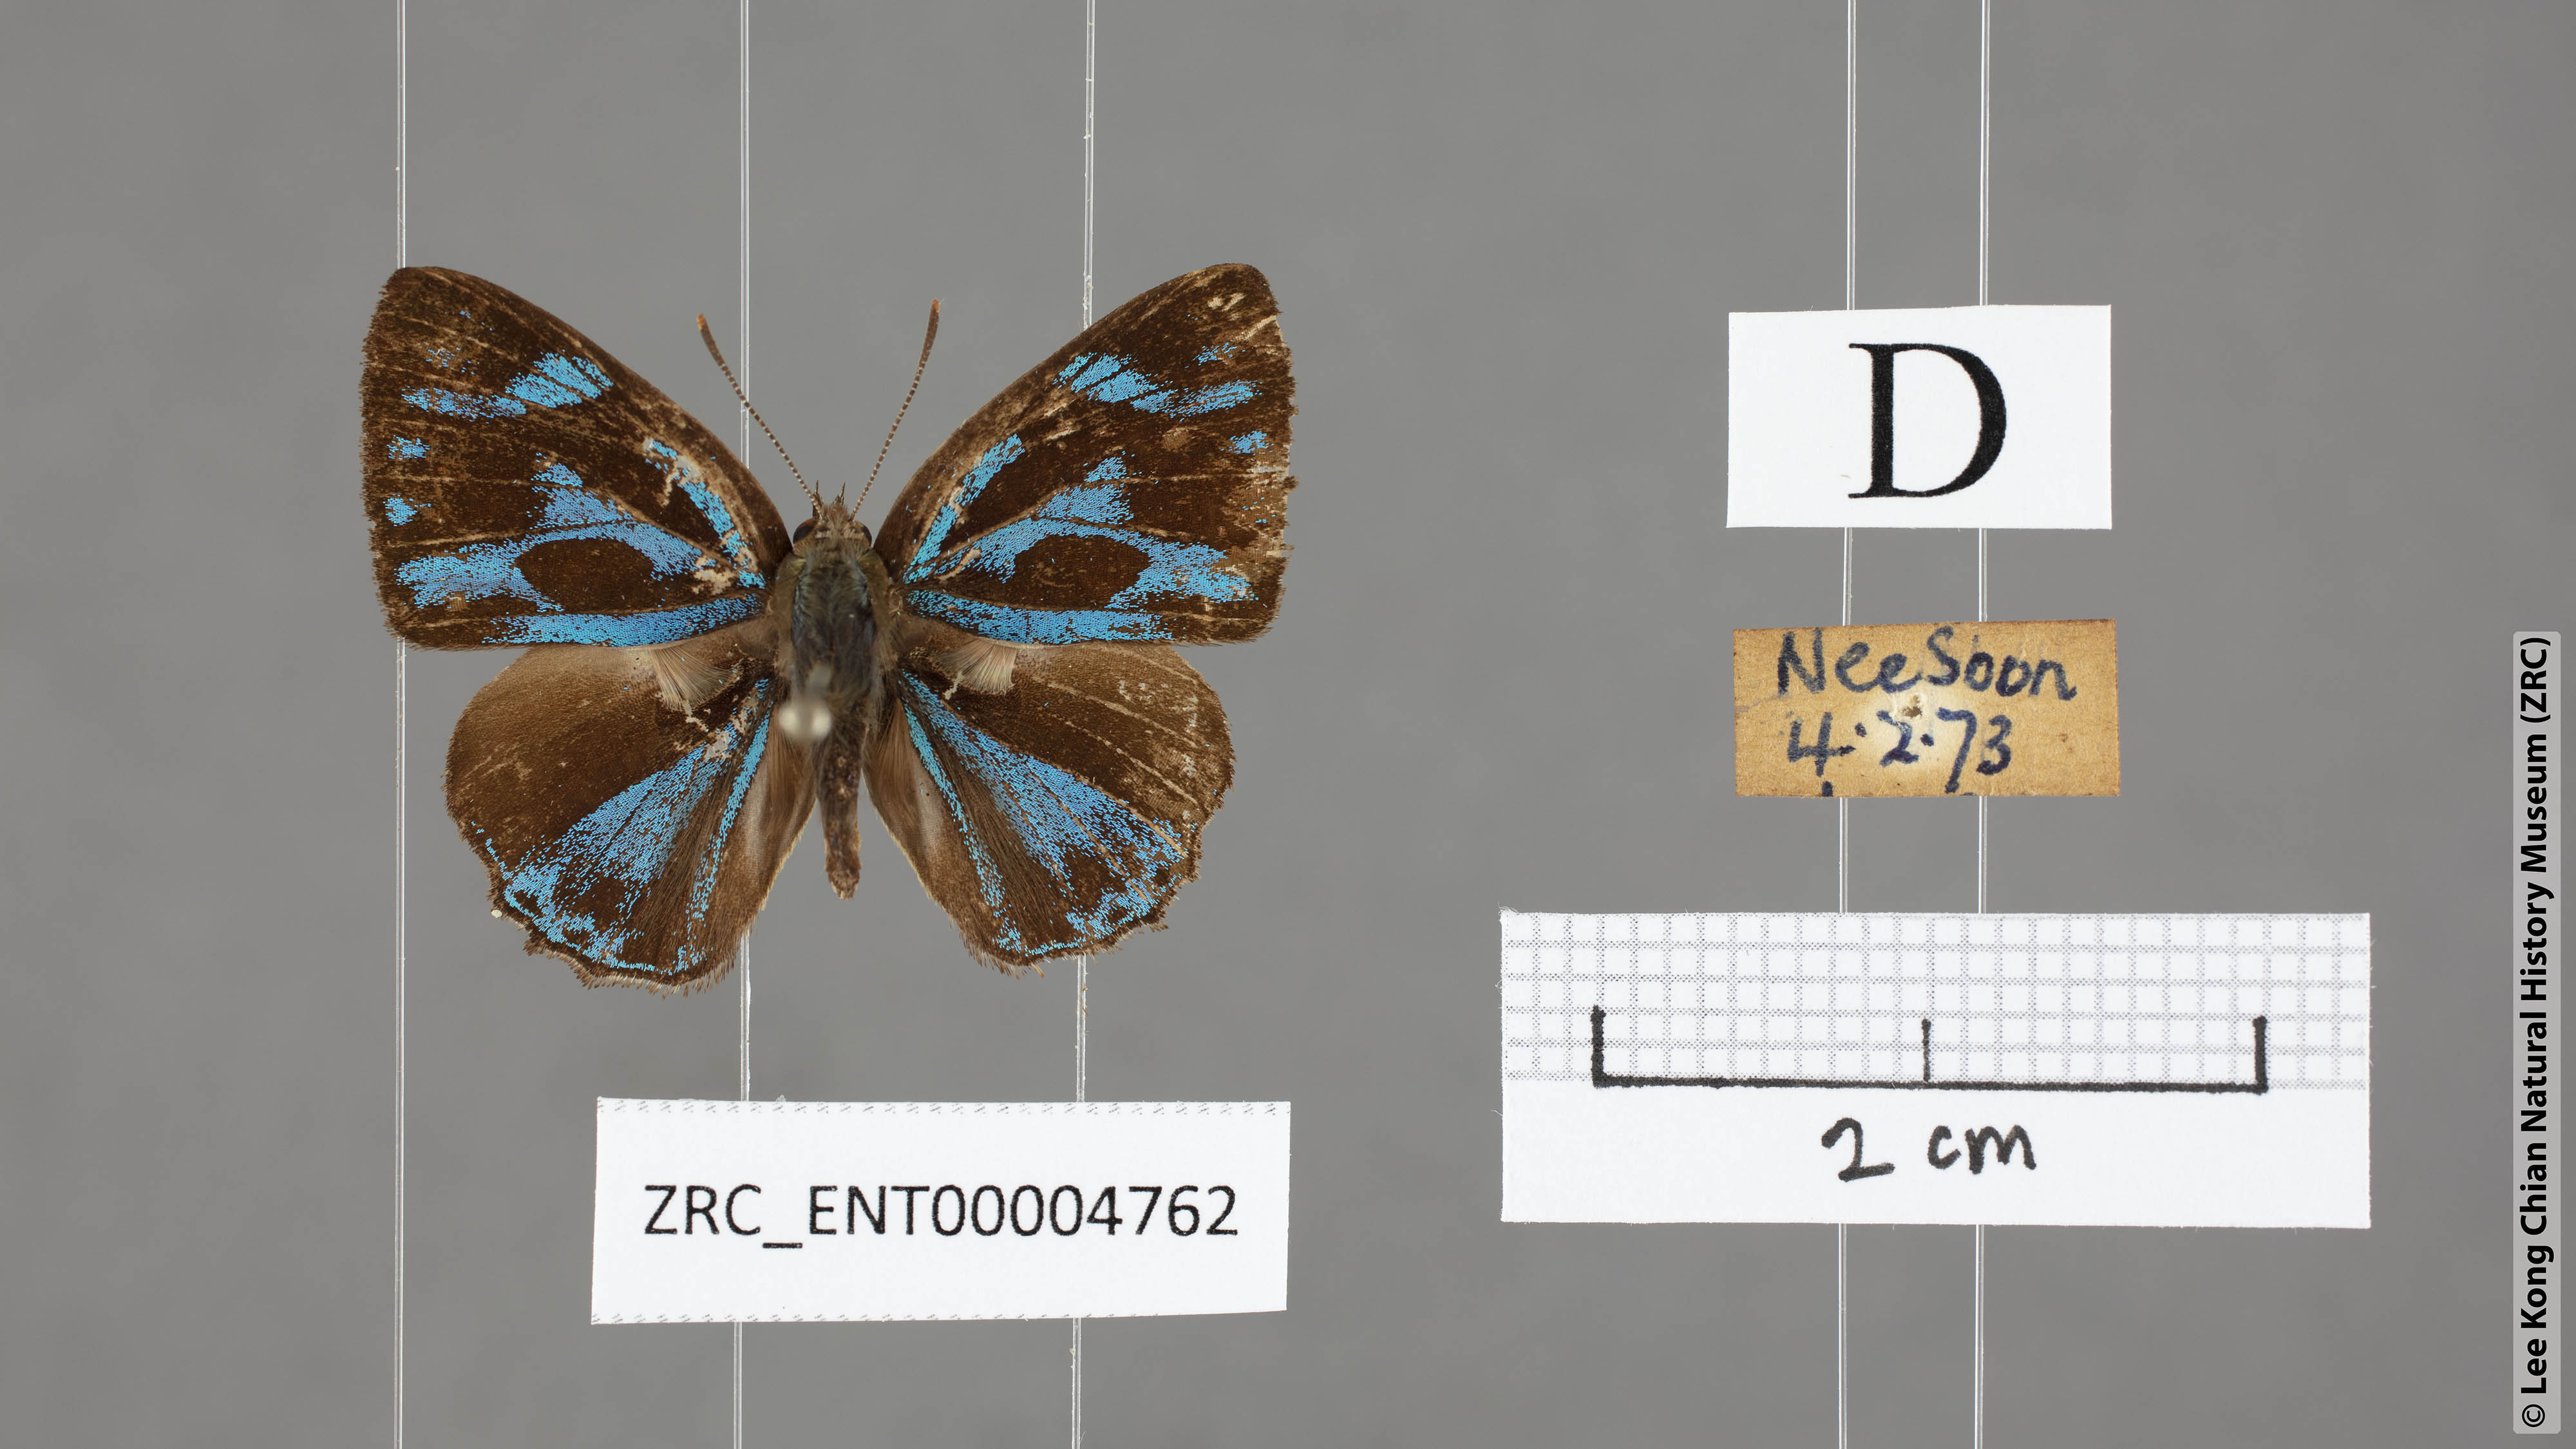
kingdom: Animalia
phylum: Arthropoda
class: Insecta
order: Lepidoptera
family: Lycaenidae
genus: Poritia
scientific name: Poritia philota
